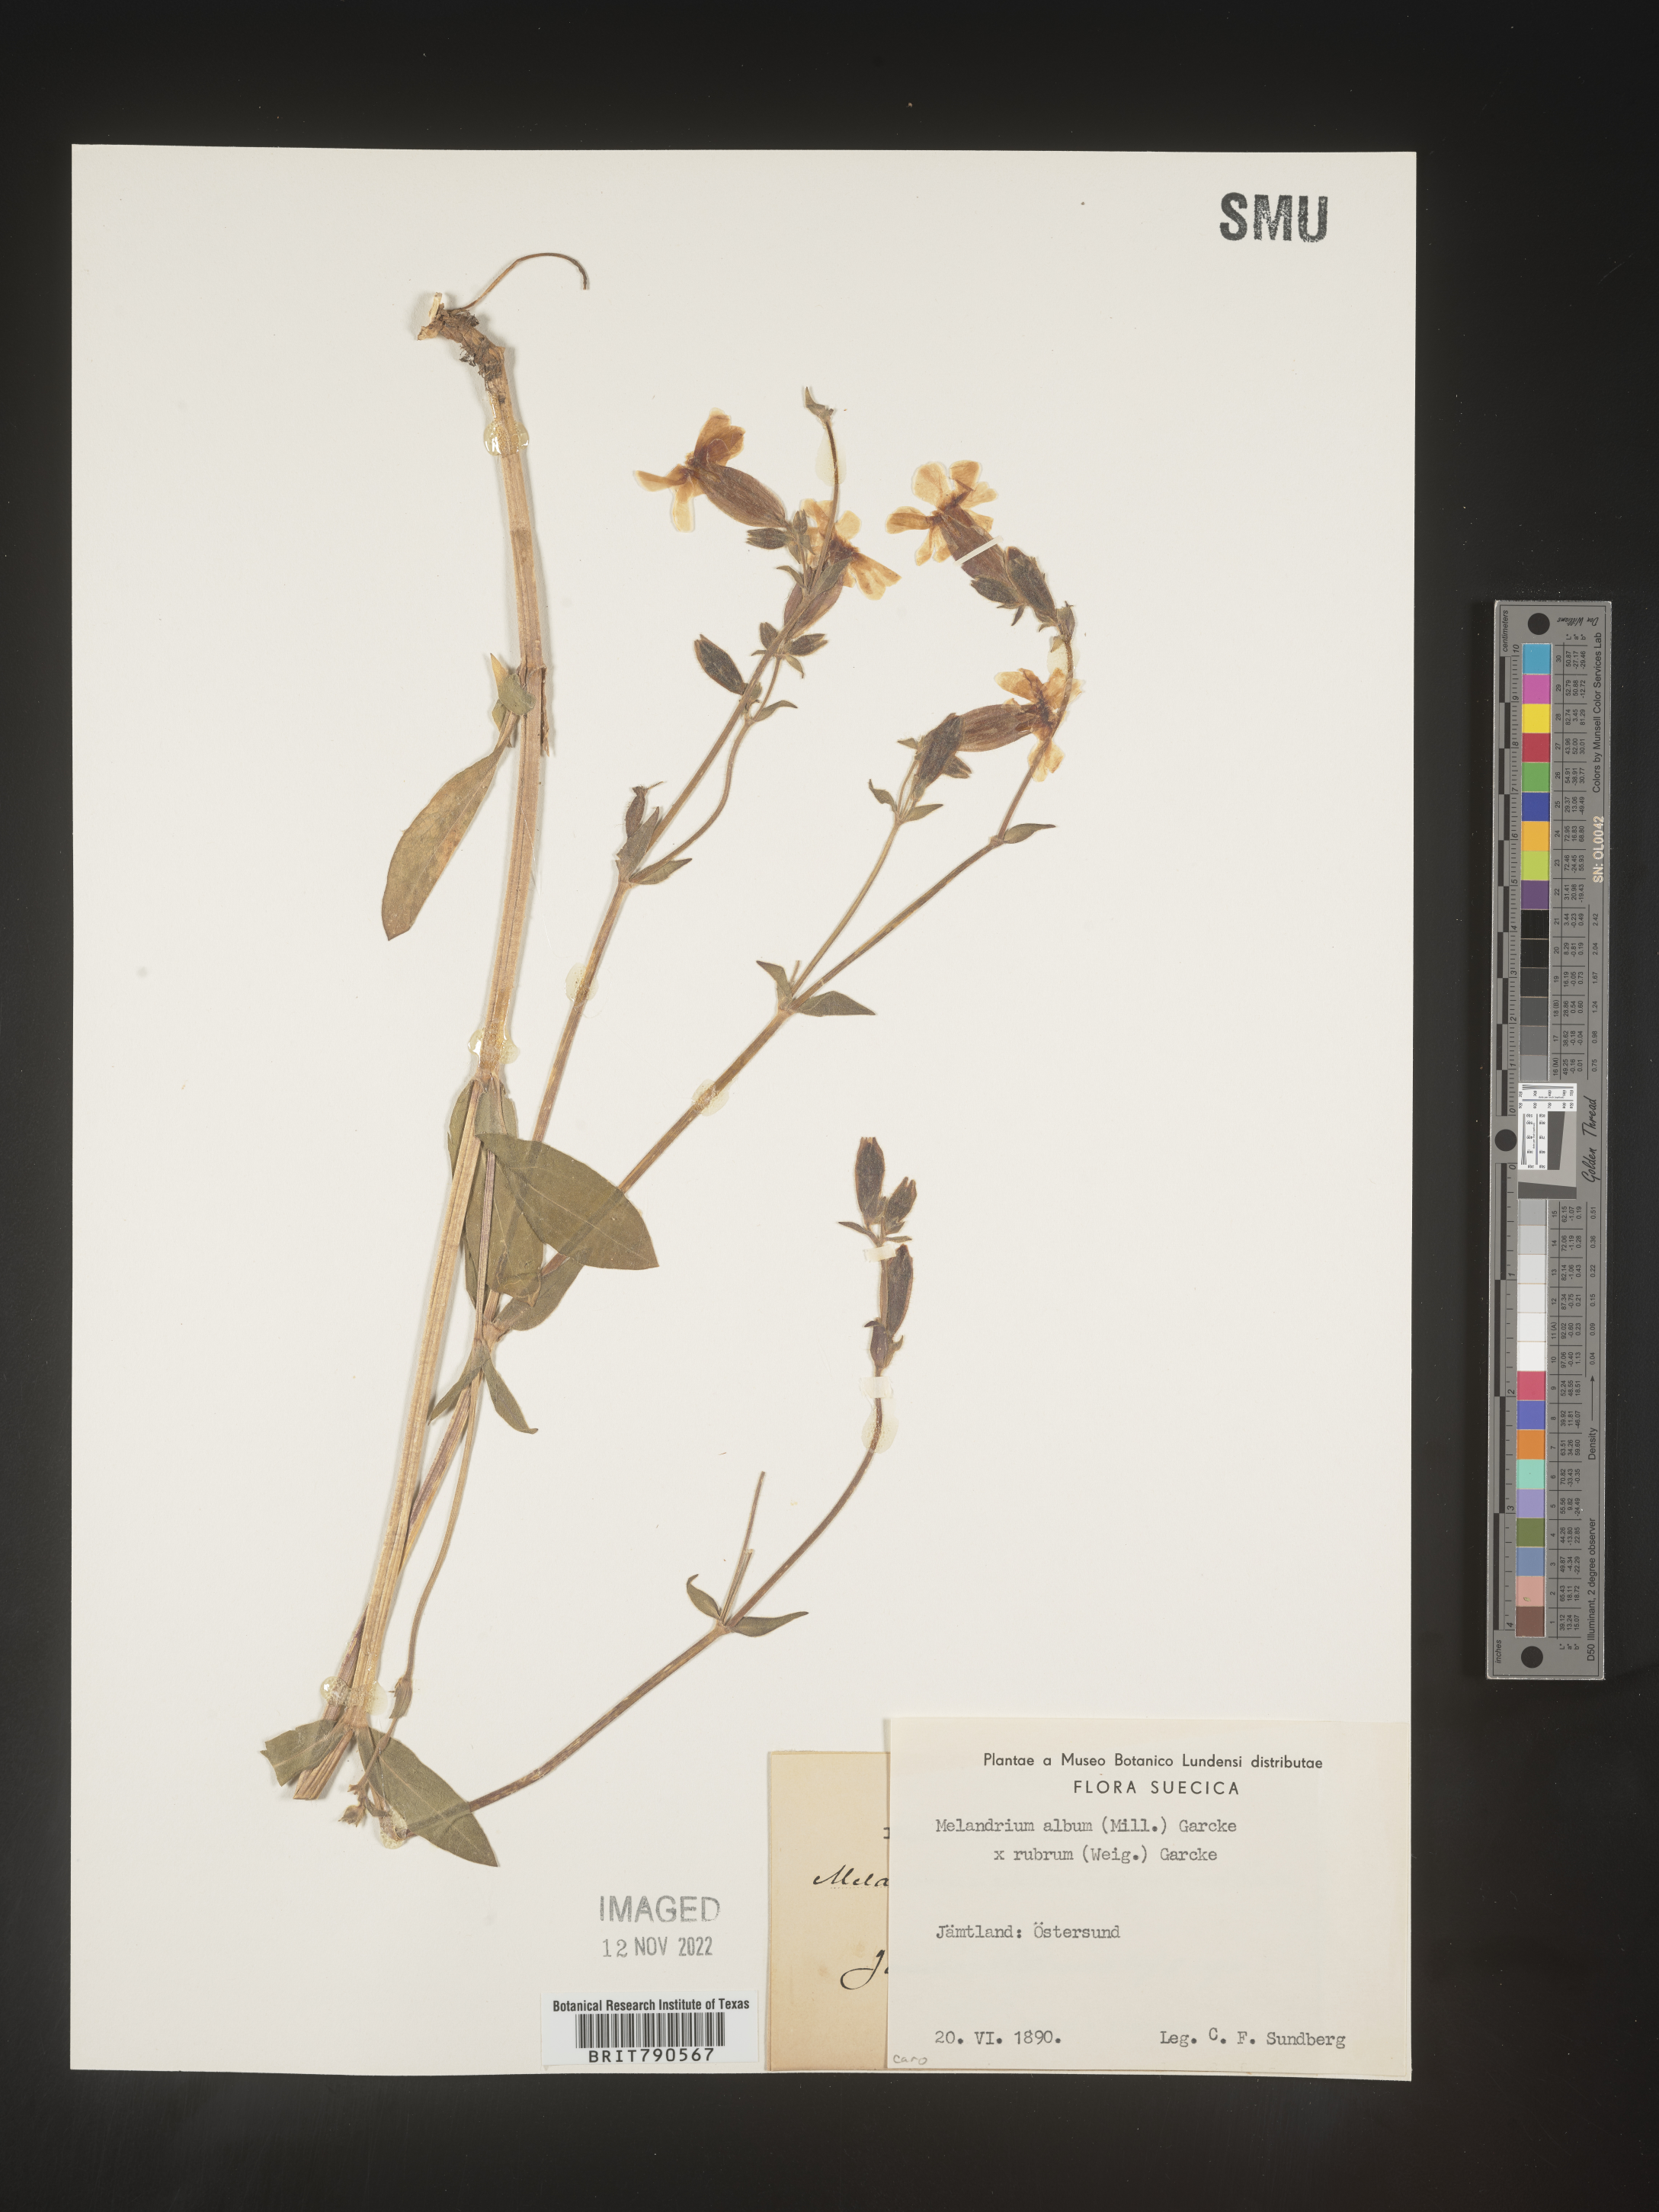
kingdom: Plantae
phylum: Tracheophyta
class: Magnoliopsida
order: Caryophyllales
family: Caryophyllaceae
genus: Silene
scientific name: Silene
